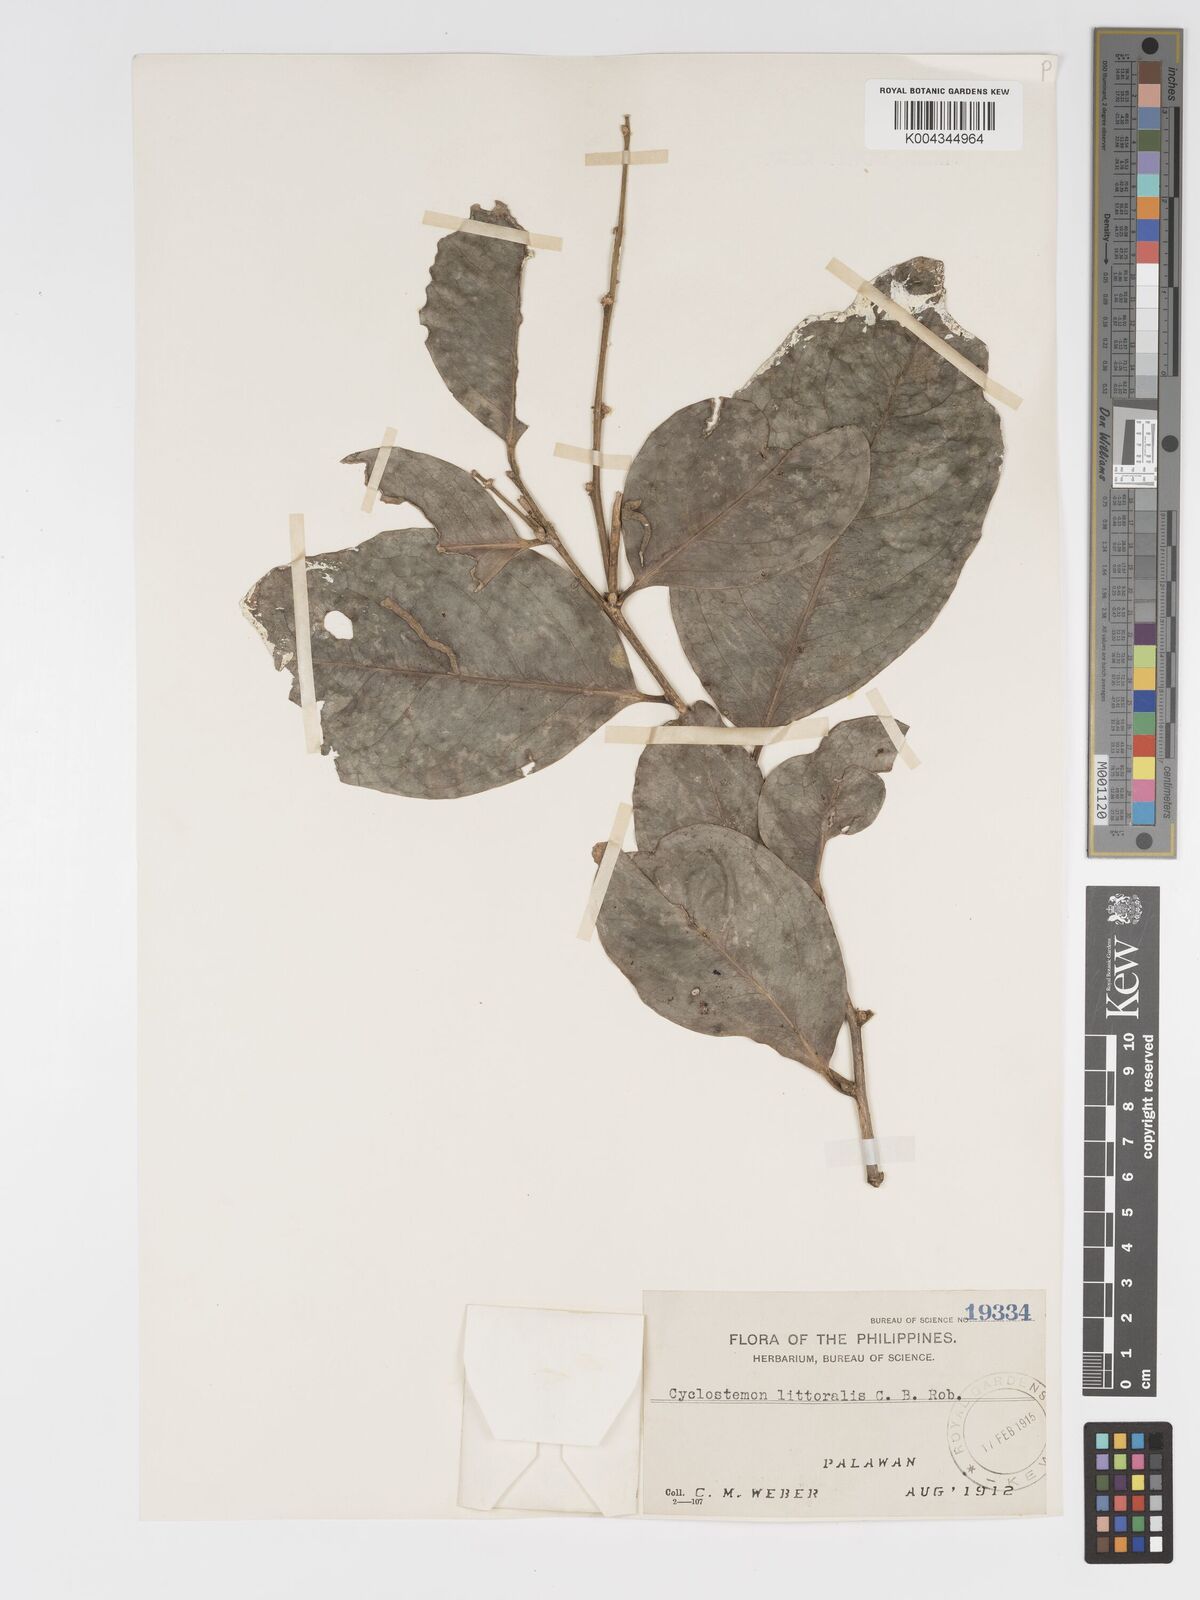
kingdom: Plantae
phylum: Tracheophyta
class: Magnoliopsida
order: Malpighiales
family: Putranjivaceae
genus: Drypetes
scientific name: Drypetes littoralis
